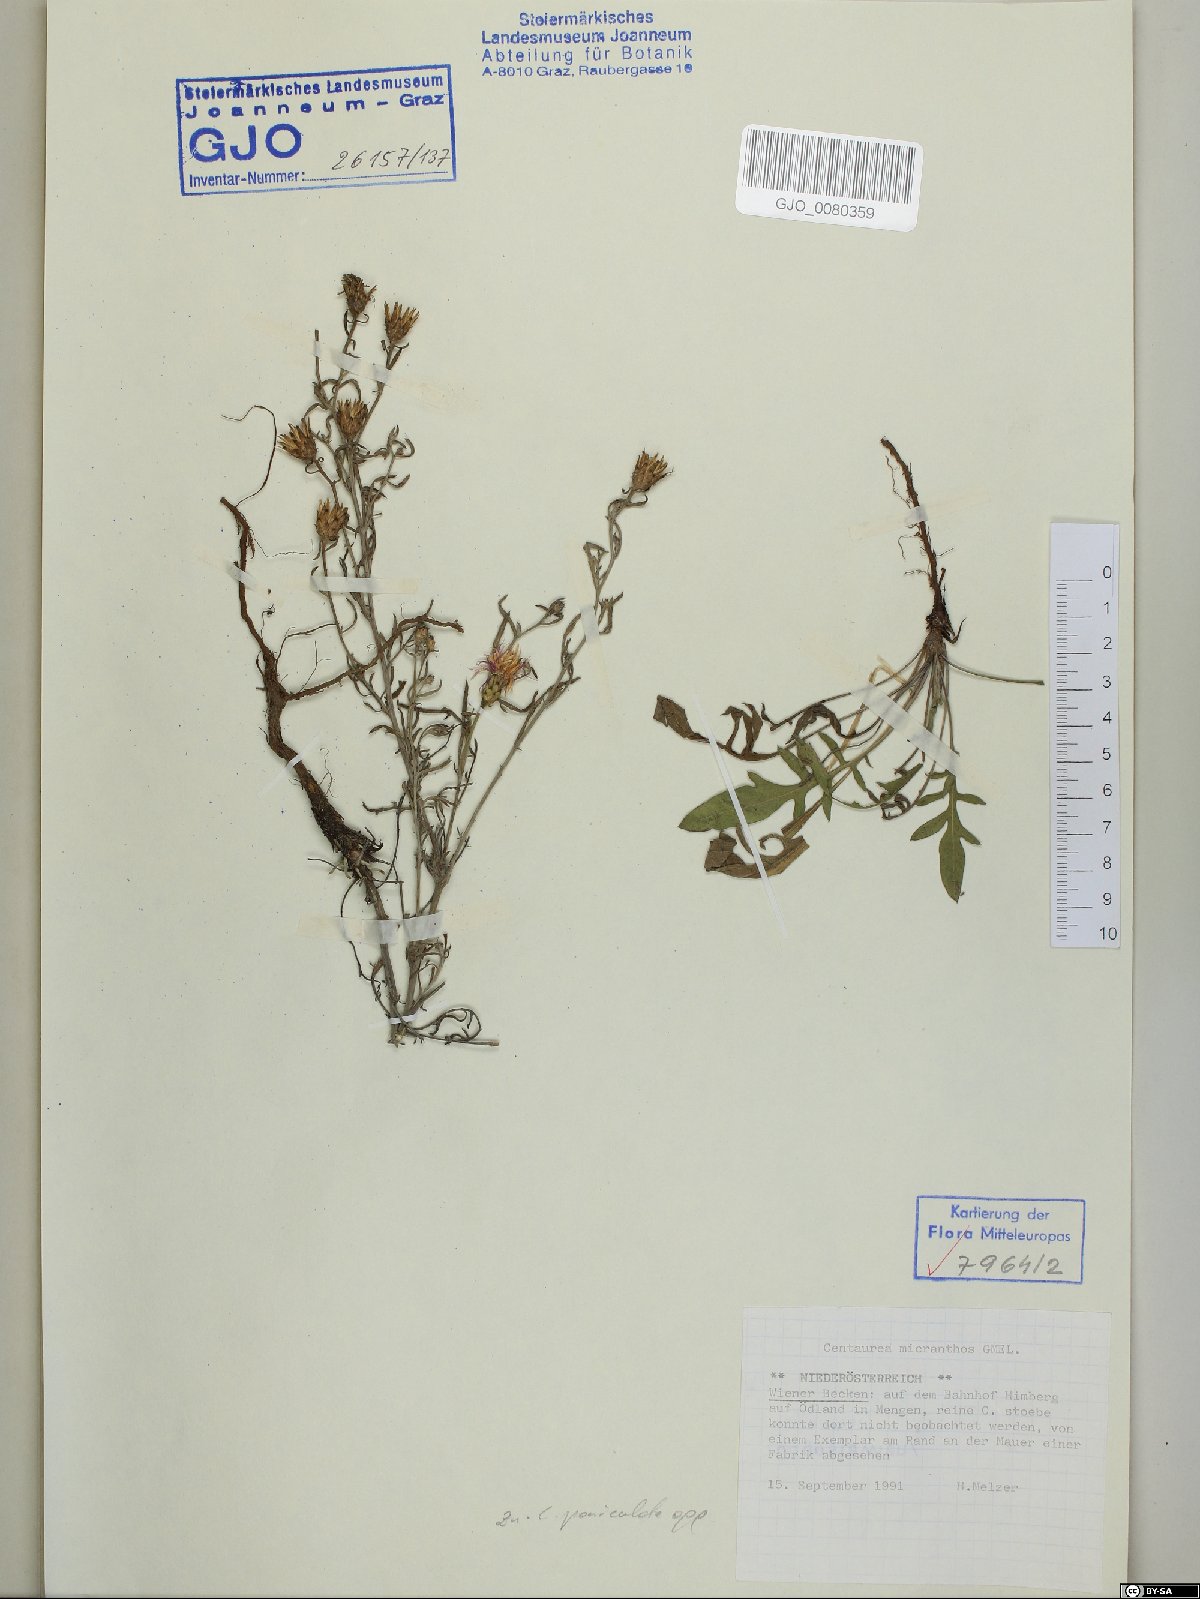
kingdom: Plantae
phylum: Tracheophyta
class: Magnoliopsida
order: Asterales
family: Asteraceae
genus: Centaurea
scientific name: Centaurea micranthos
